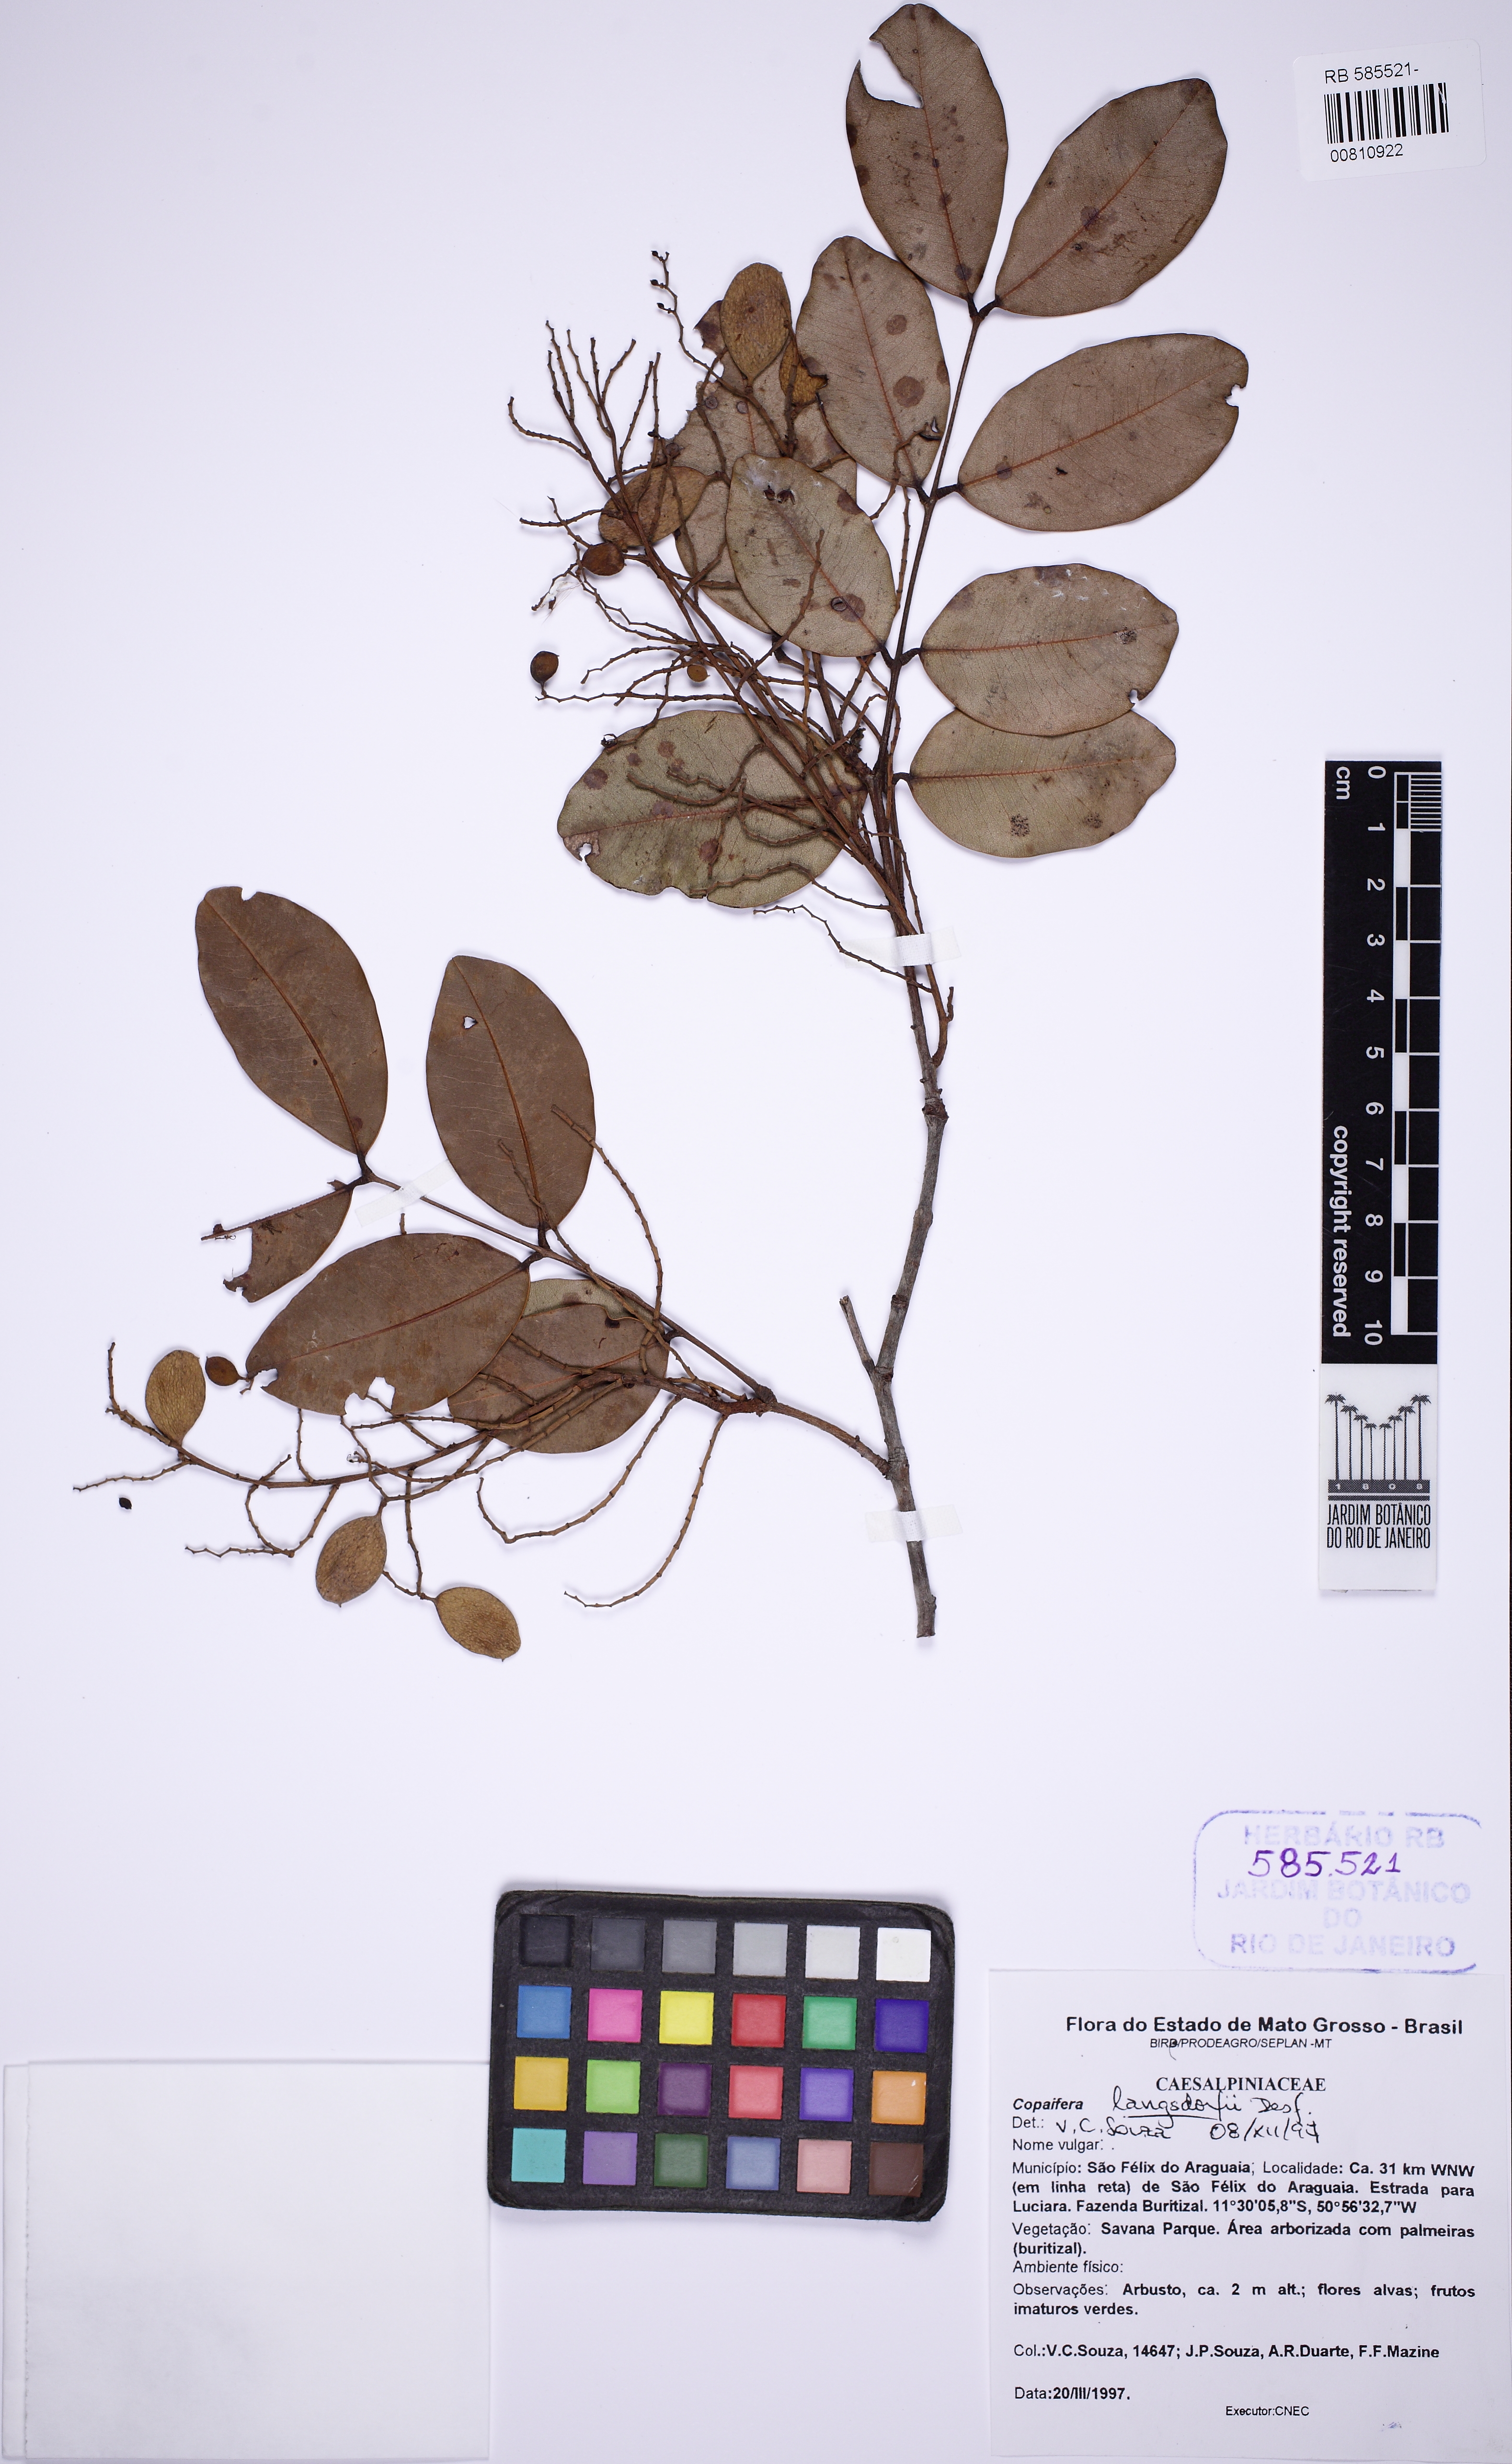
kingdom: Plantae
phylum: Tracheophyta
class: Magnoliopsida
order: Fabales
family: Fabaceae
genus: Copaifera
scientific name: Copaifera langsdorffii
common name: Brazilian diesel tree
